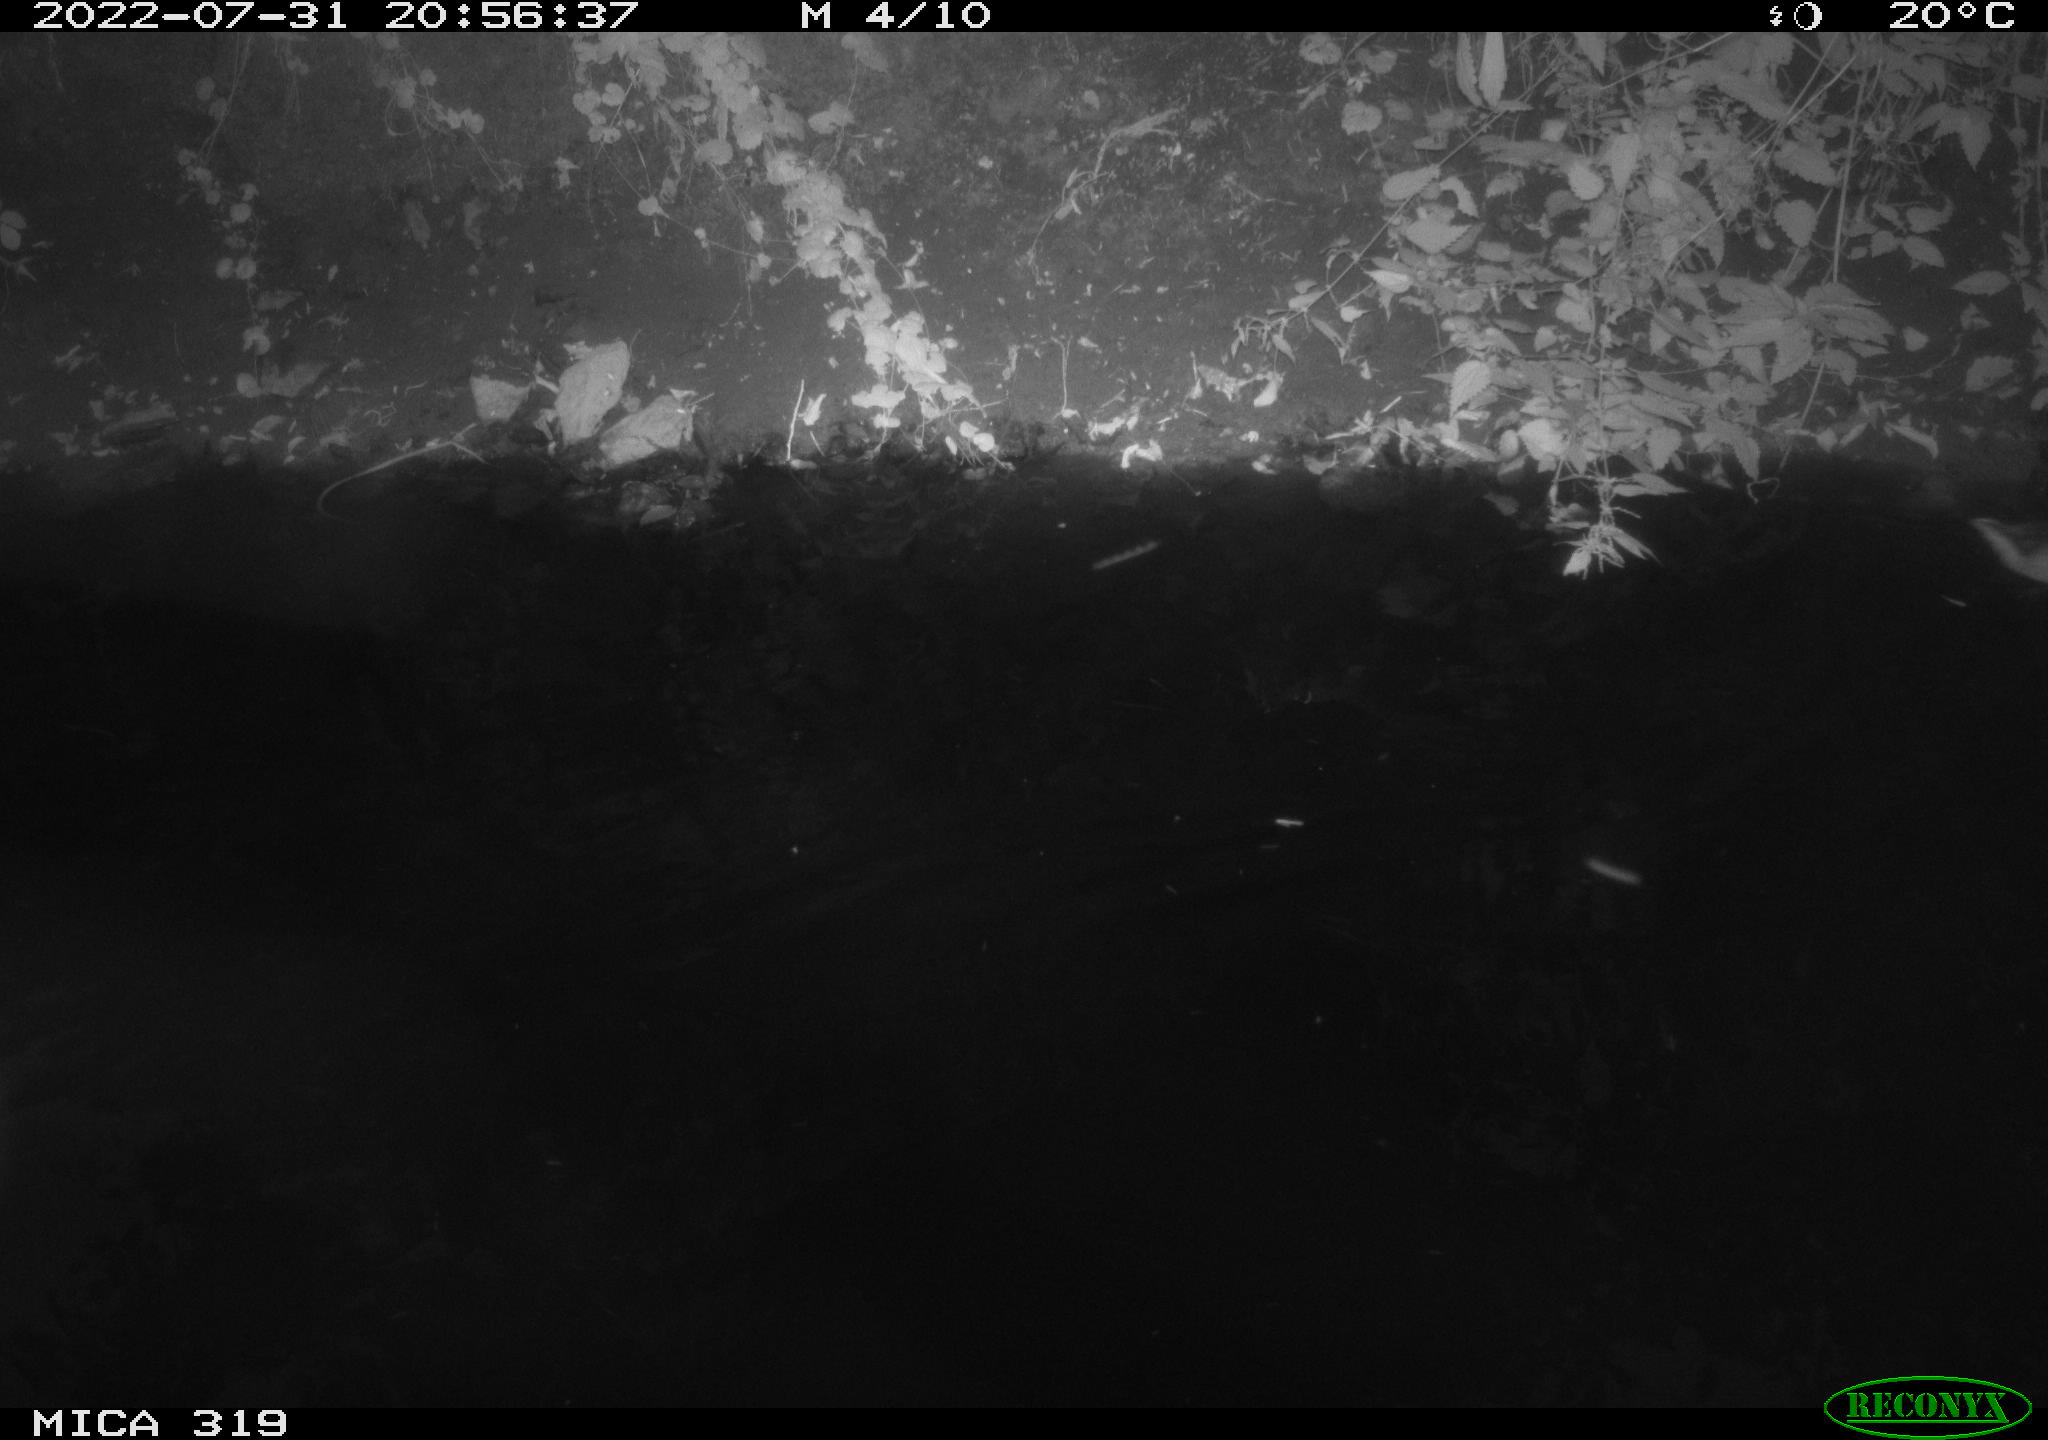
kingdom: Animalia
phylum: Chordata
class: Aves
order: Anseriformes
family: Anatidae
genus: Anas
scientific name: Anas
